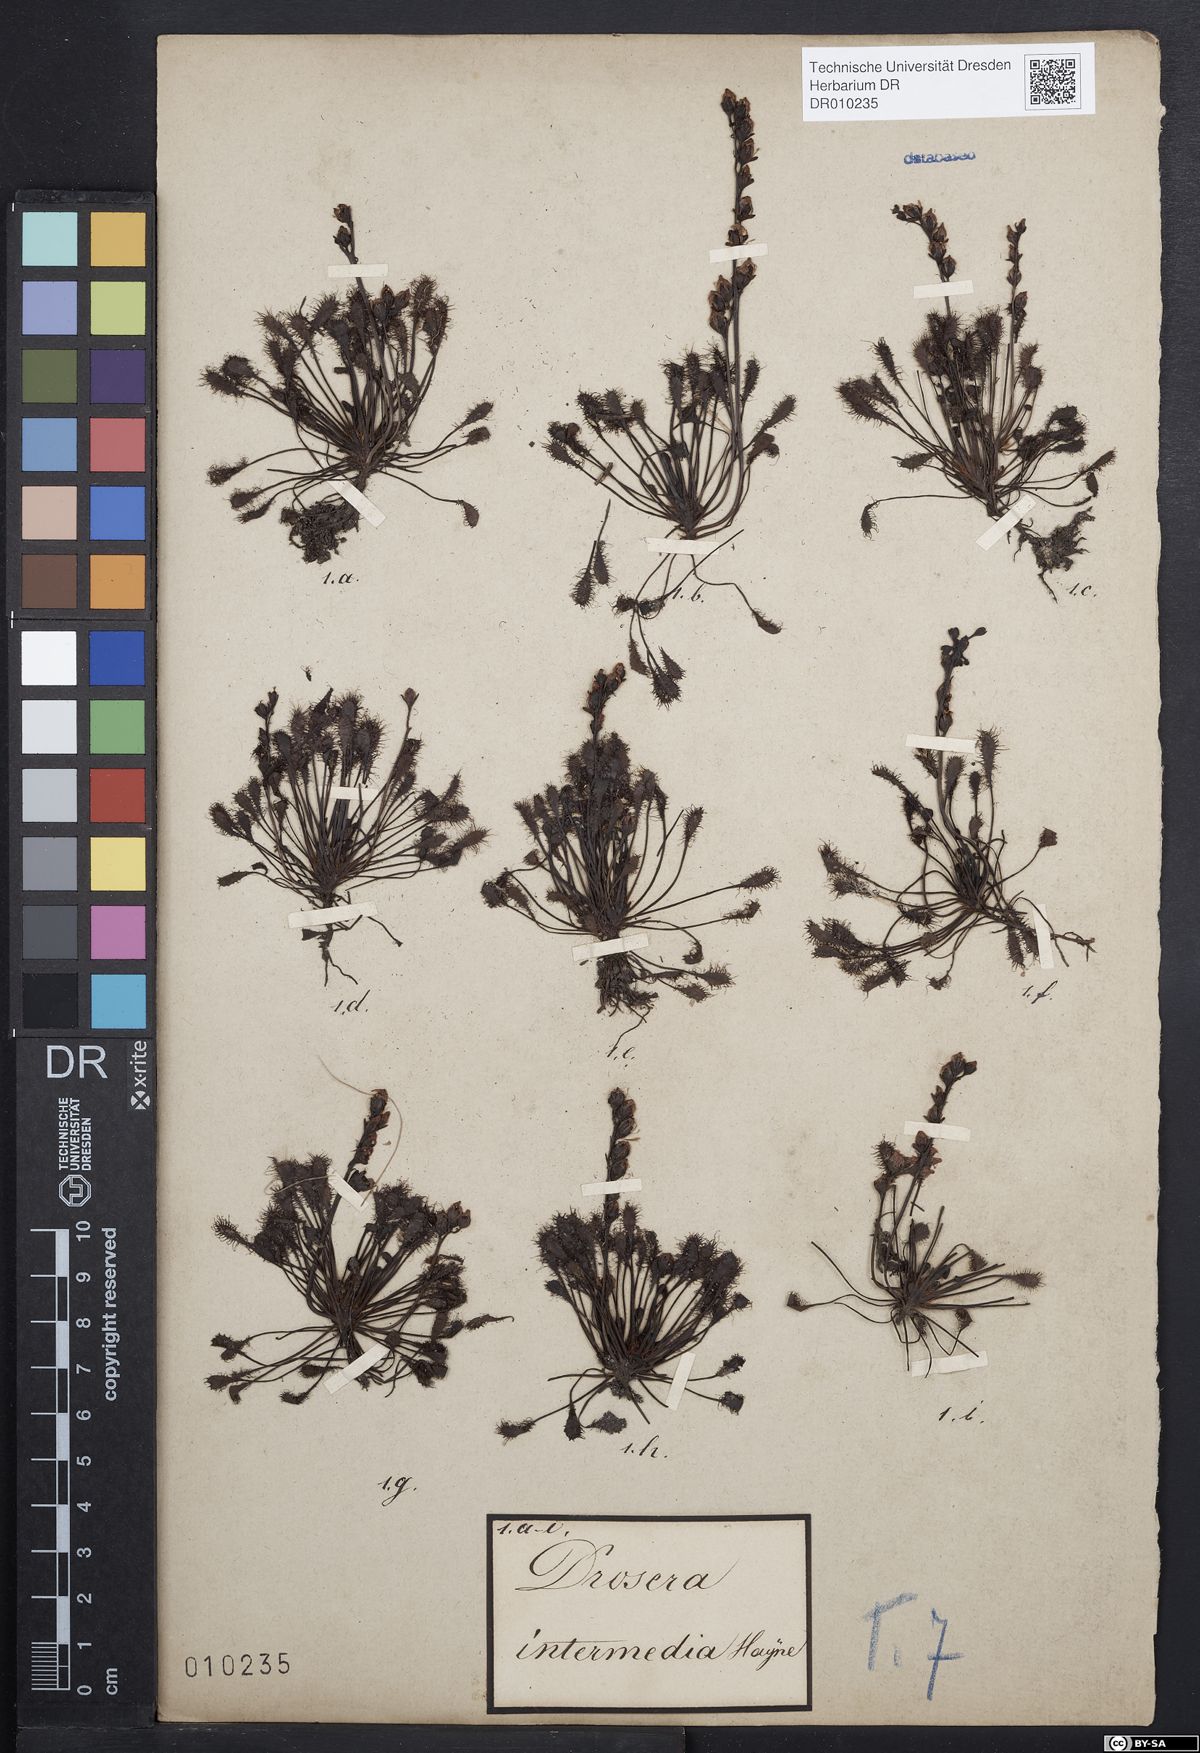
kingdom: Plantae
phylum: Tracheophyta
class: Magnoliopsida
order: Caryophyllales
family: Droseraceae
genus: Drosera
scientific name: Drosera intermedia
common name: Oblong-leaved sundew
